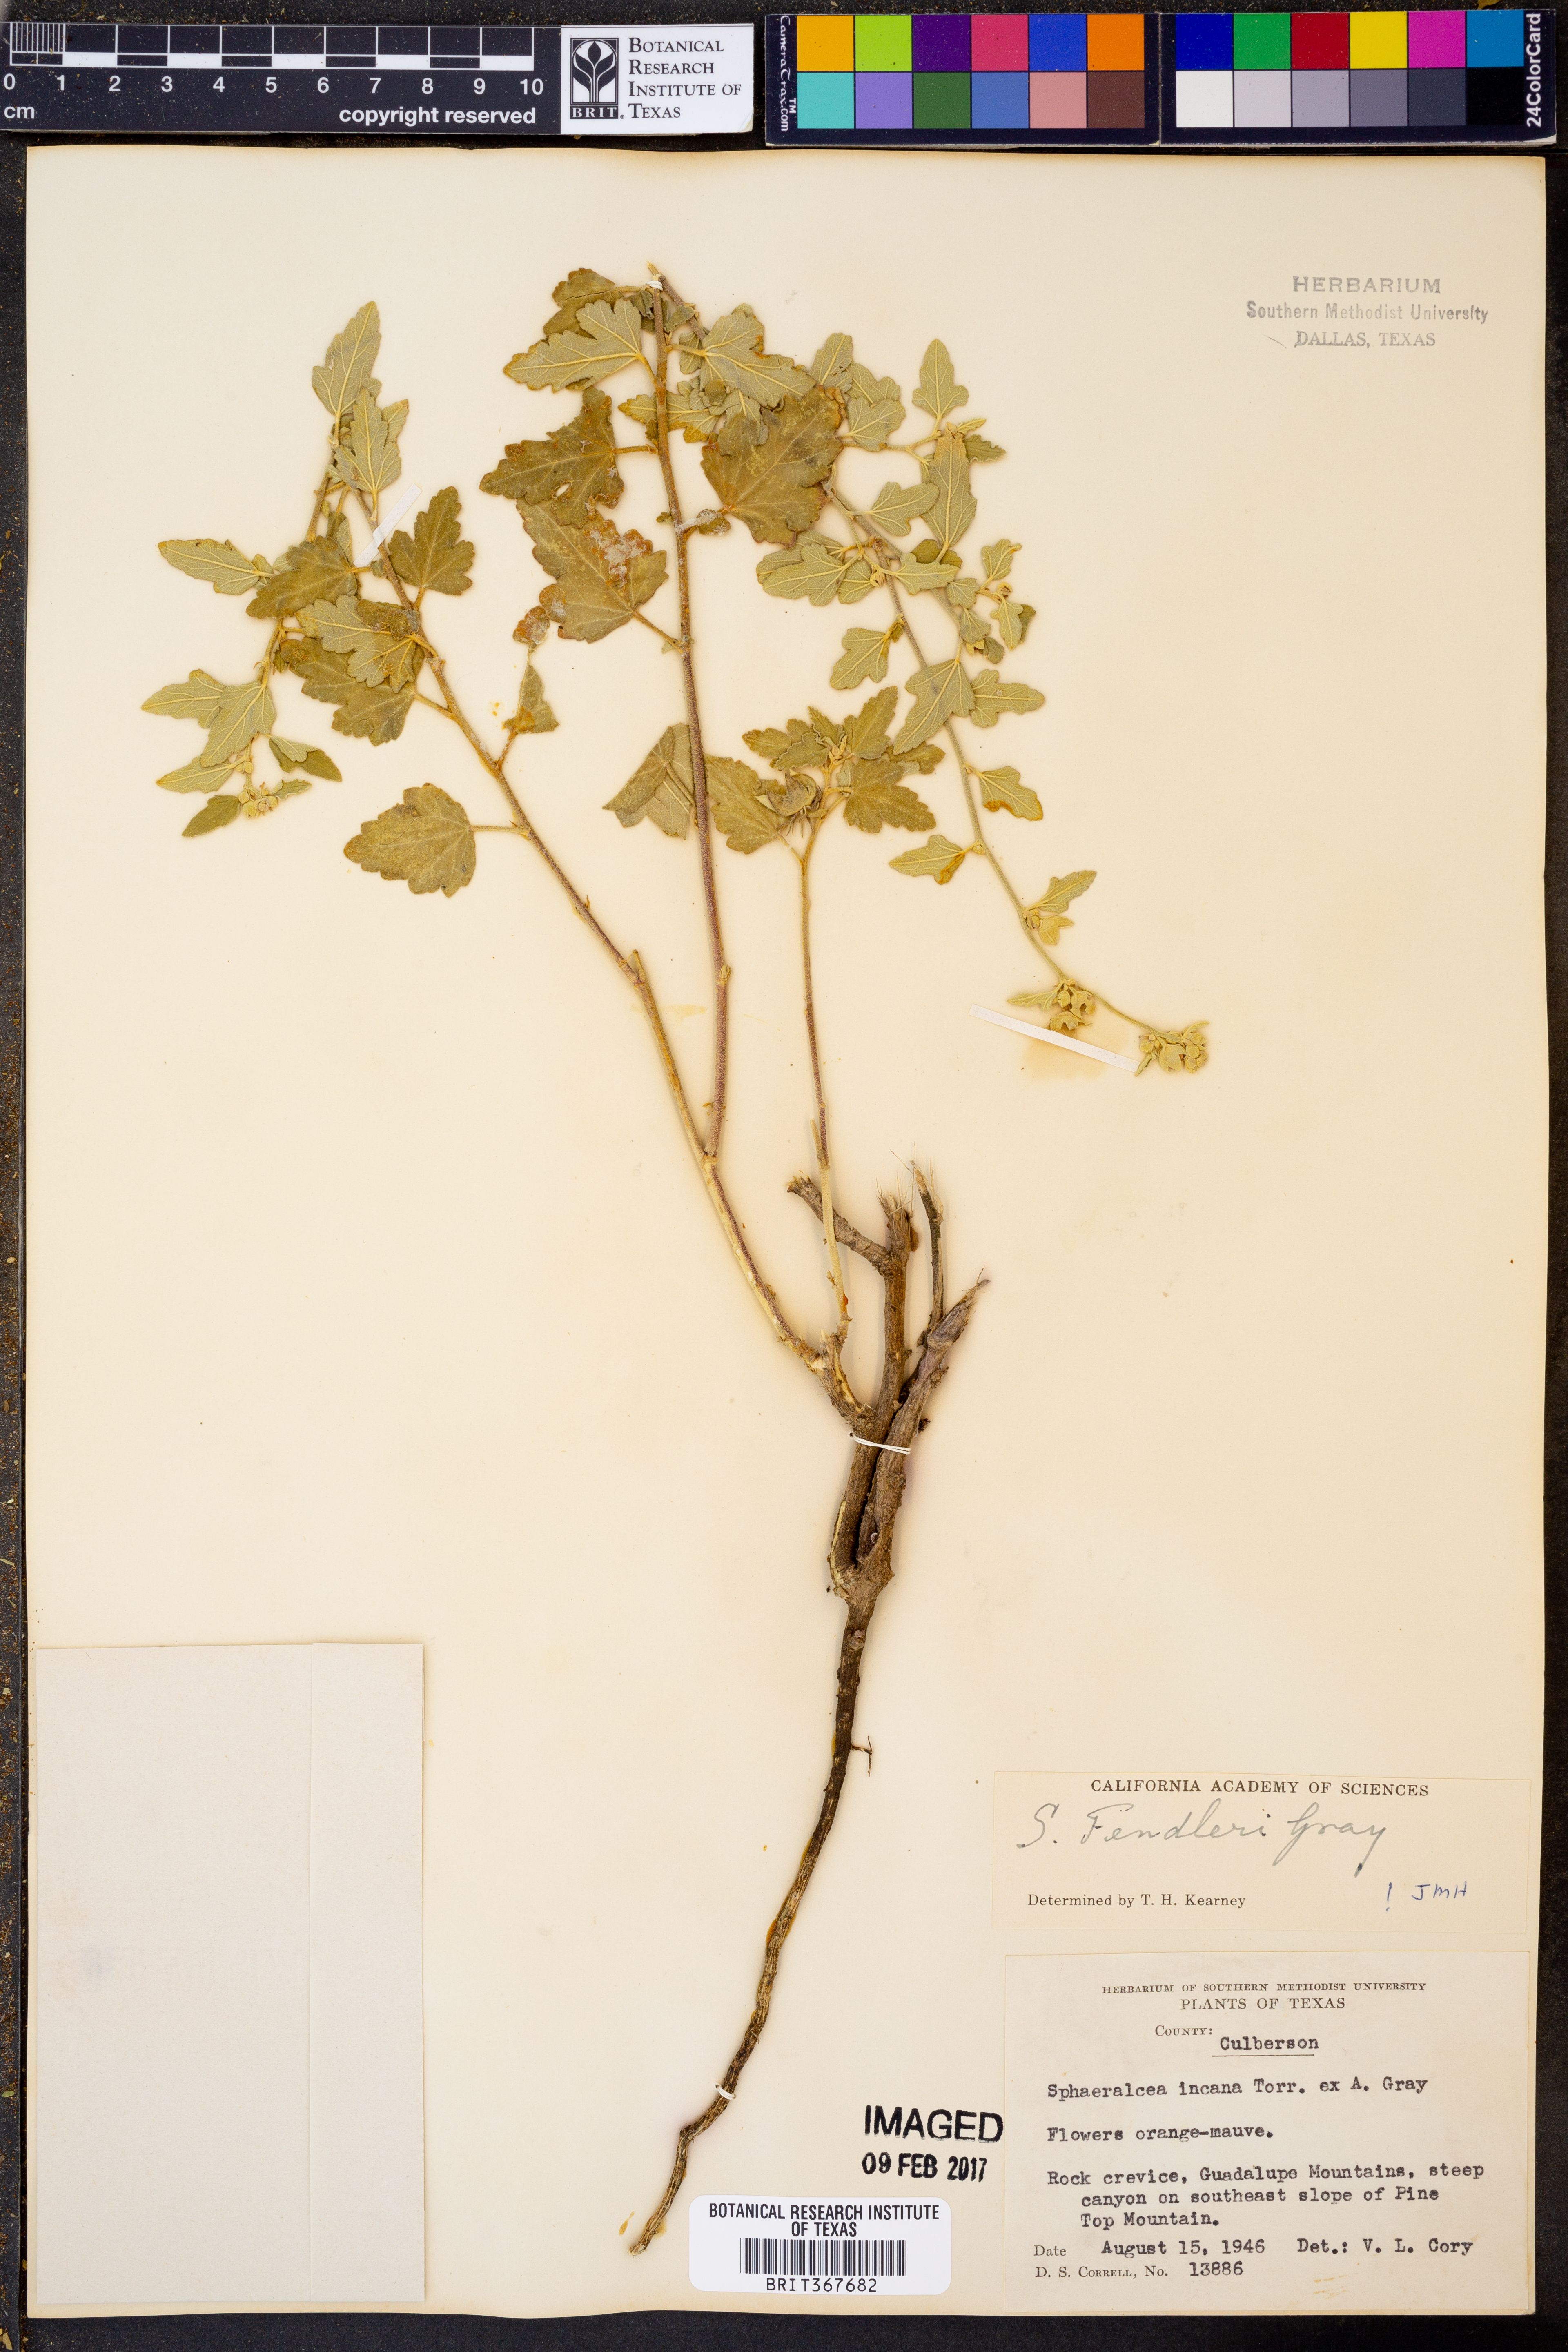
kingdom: Plantae
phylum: Tracheophyta
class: Magnoliopsida
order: Malvales
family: Malvaceae
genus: Sphaeralcea
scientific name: Sphaeralcea fendleri
